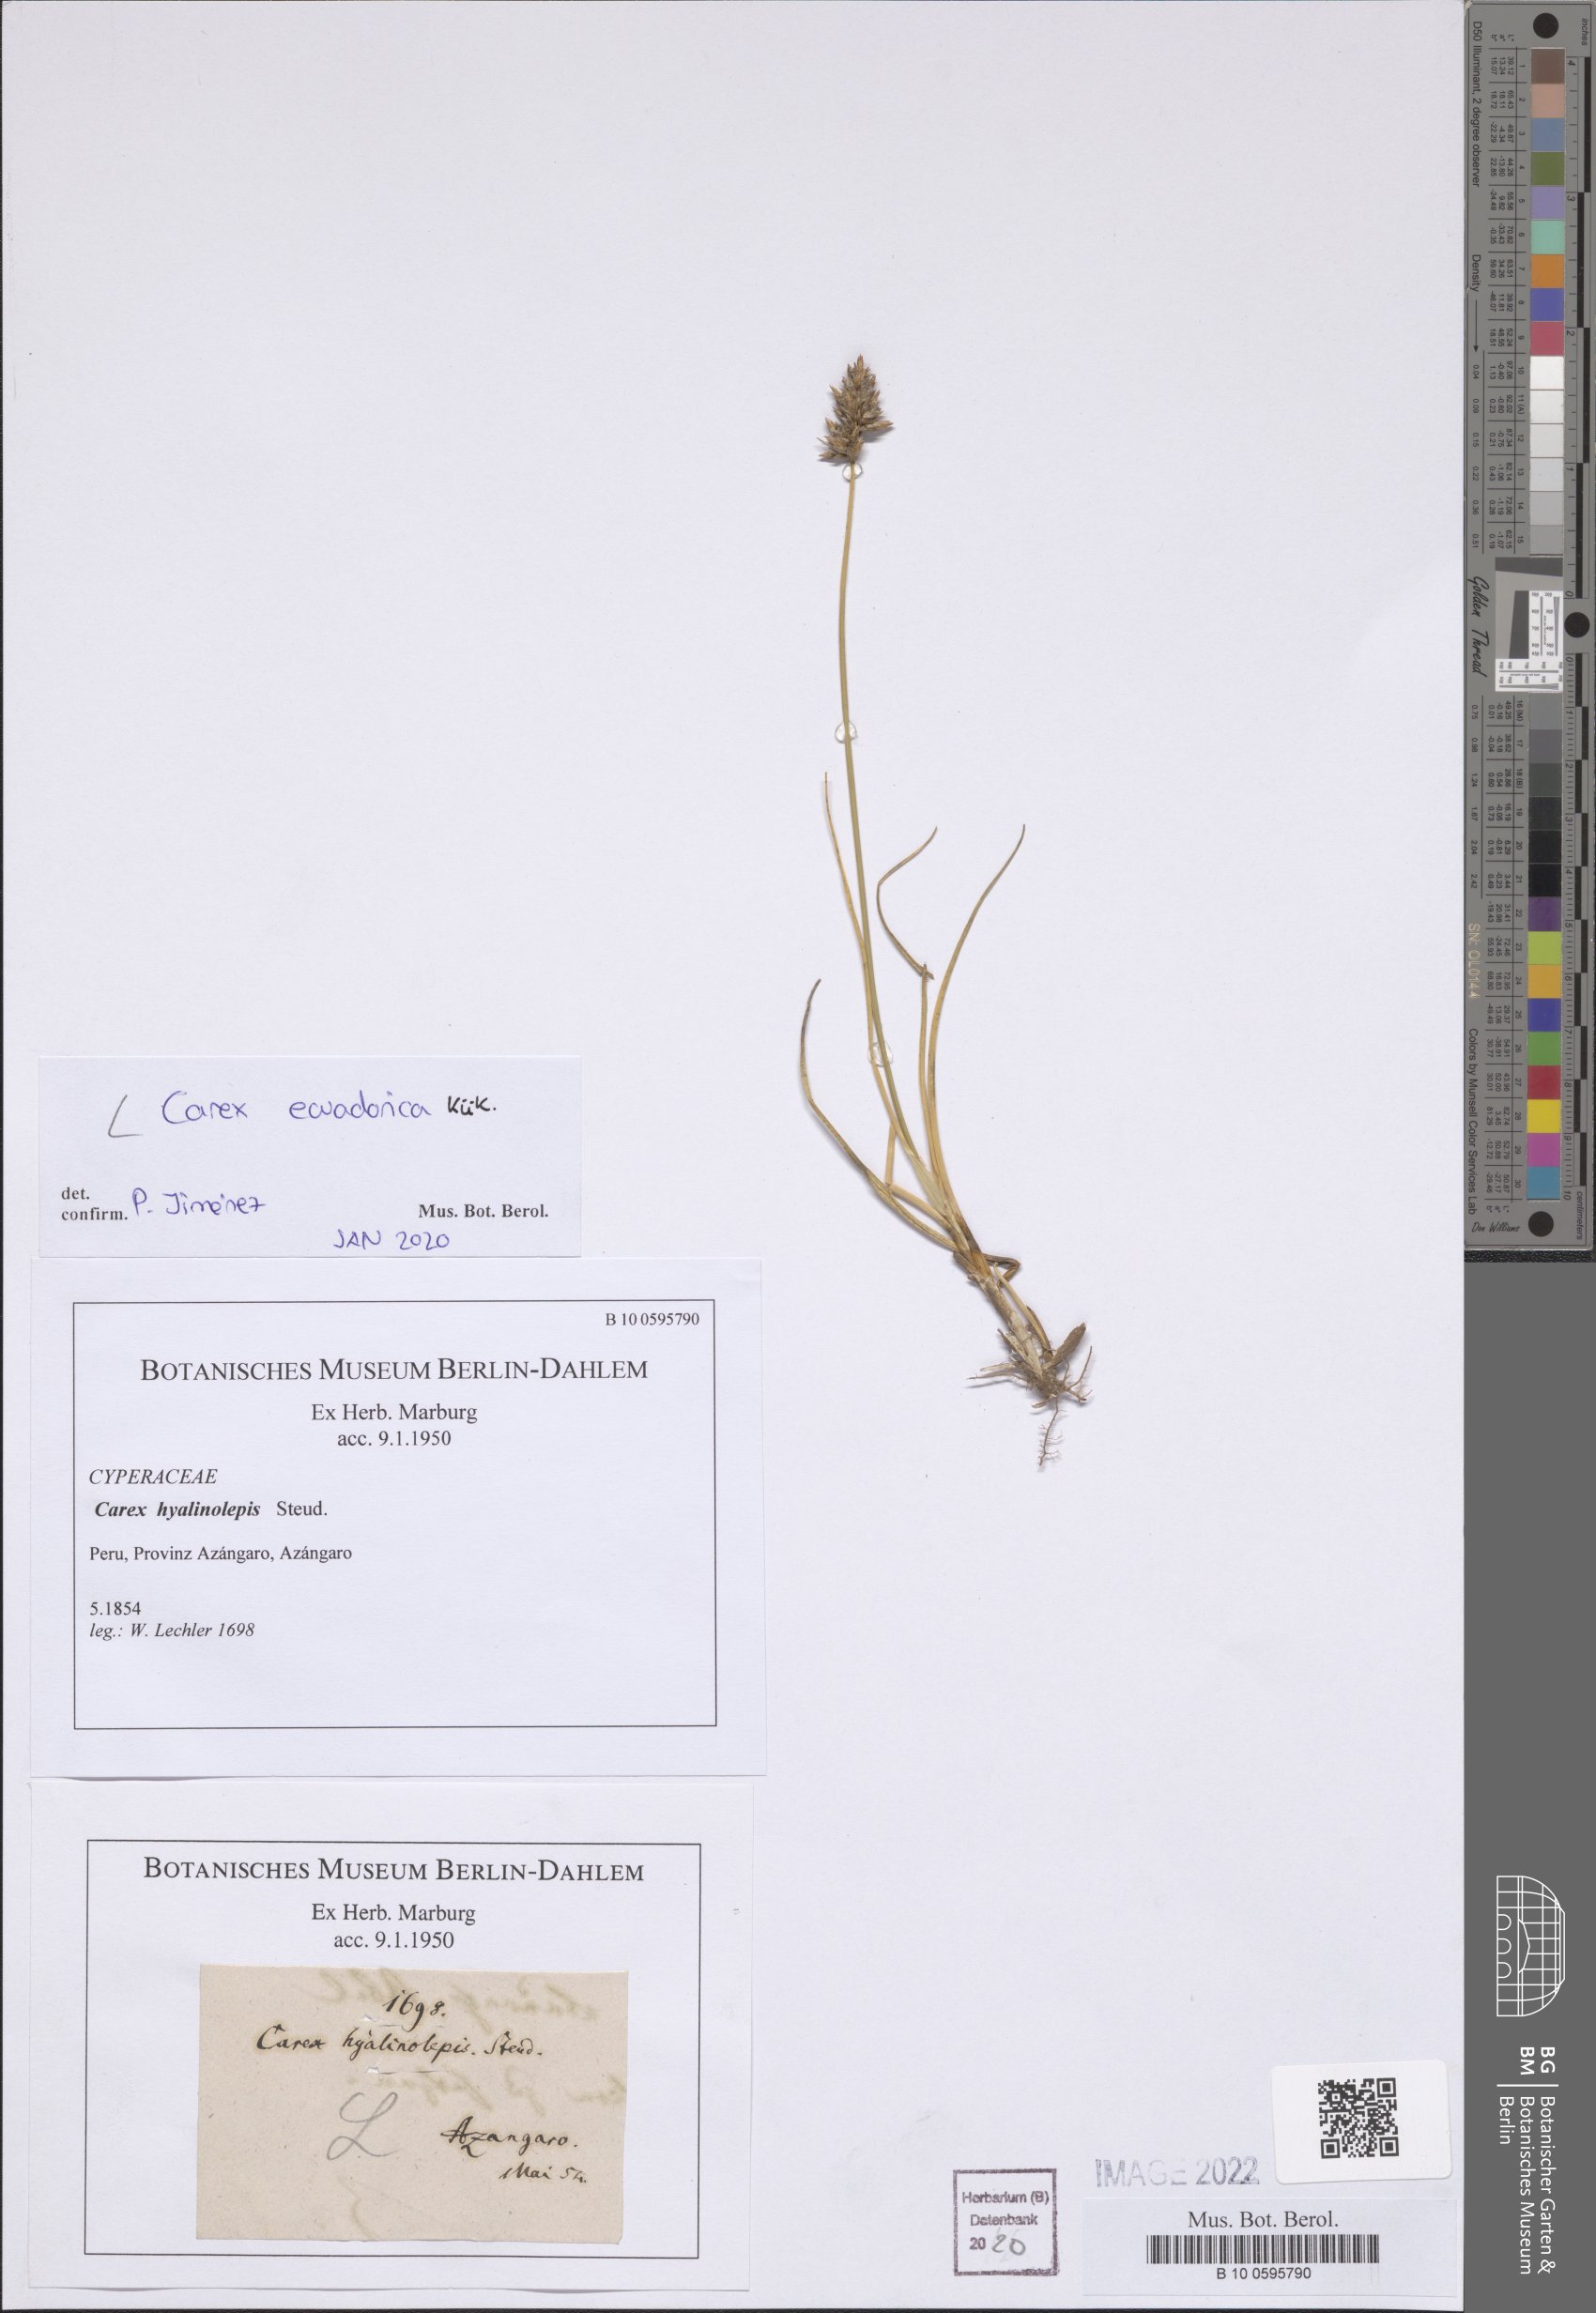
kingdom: Plantae
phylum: Tracheophyta
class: Liliopsida
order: Poales
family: Cyperaceae
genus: Carex
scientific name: Carex ecuadorica
